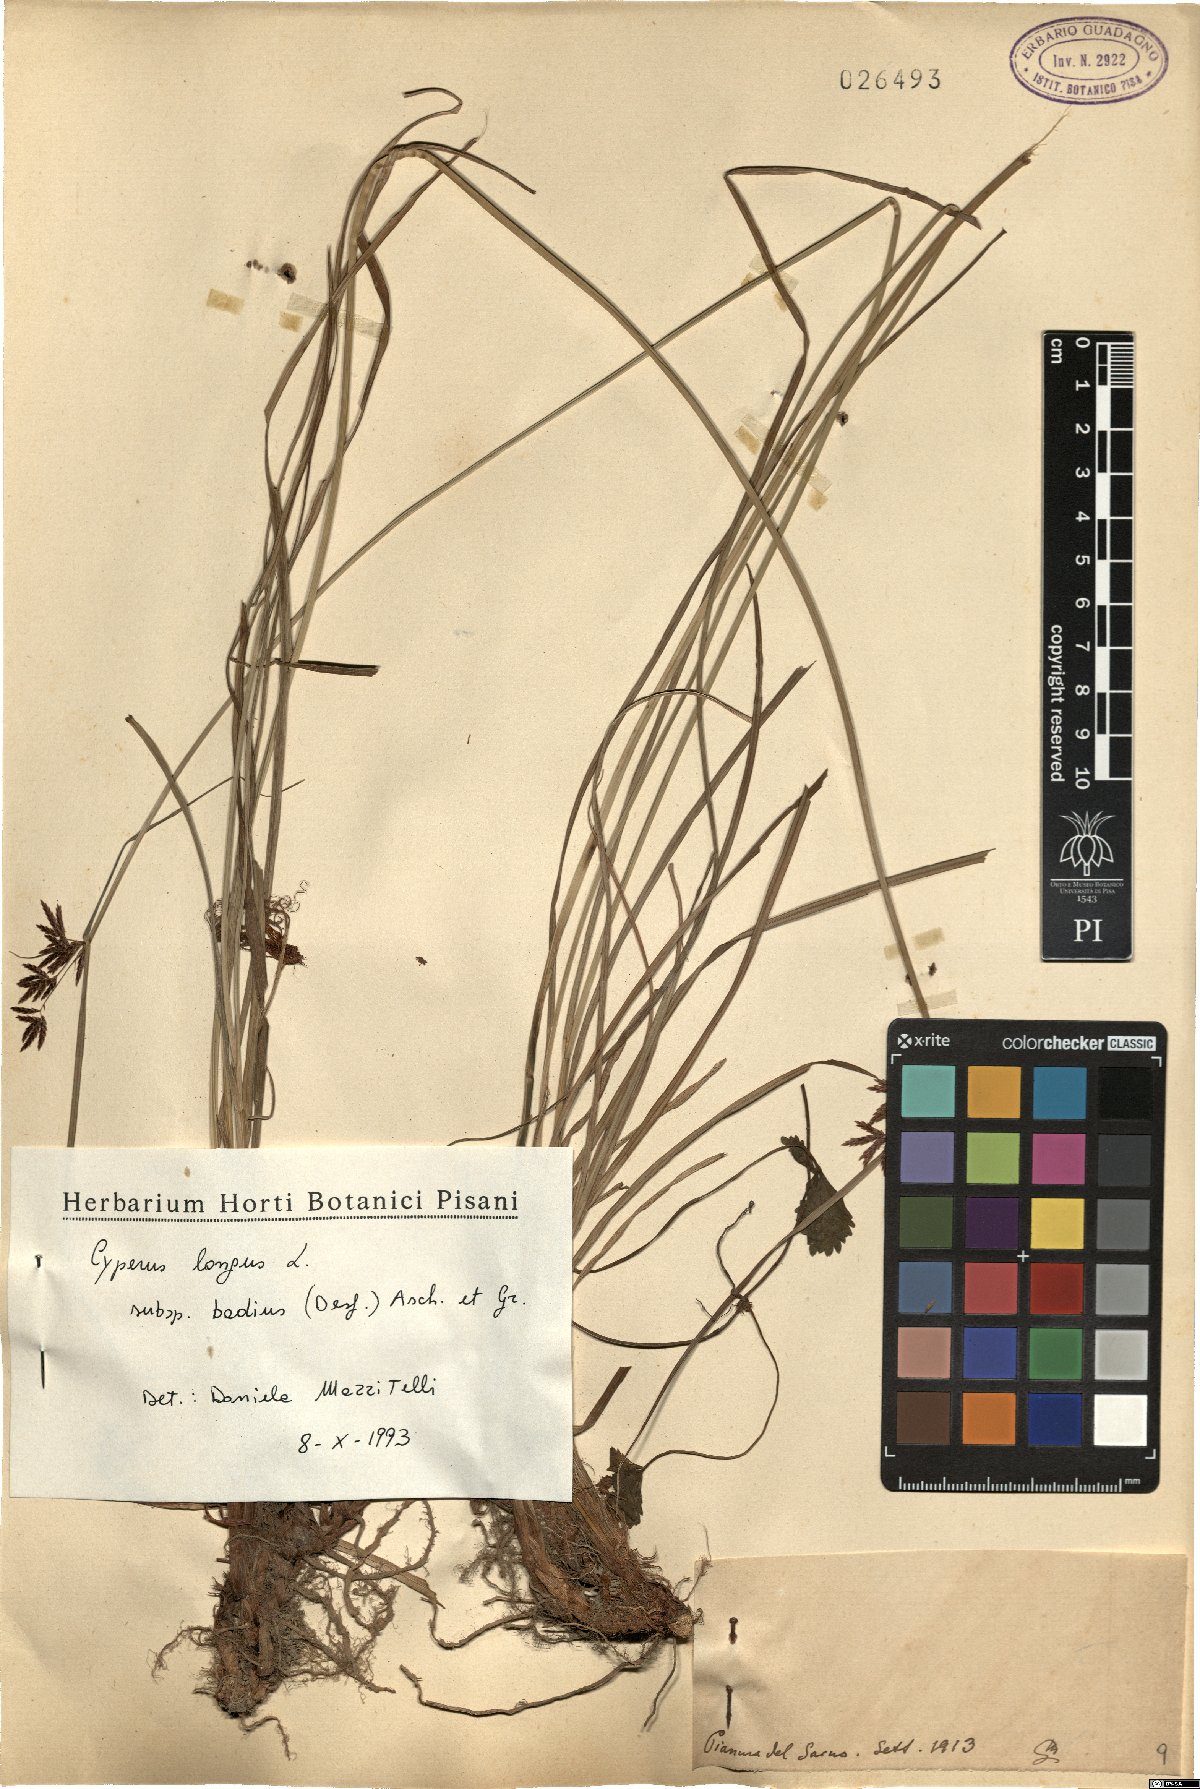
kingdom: Plantae
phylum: Tracheophyta
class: Liliopsida
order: Poales
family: Cyperaceae
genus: Cyperus
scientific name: Cyperus longus
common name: Galingale
